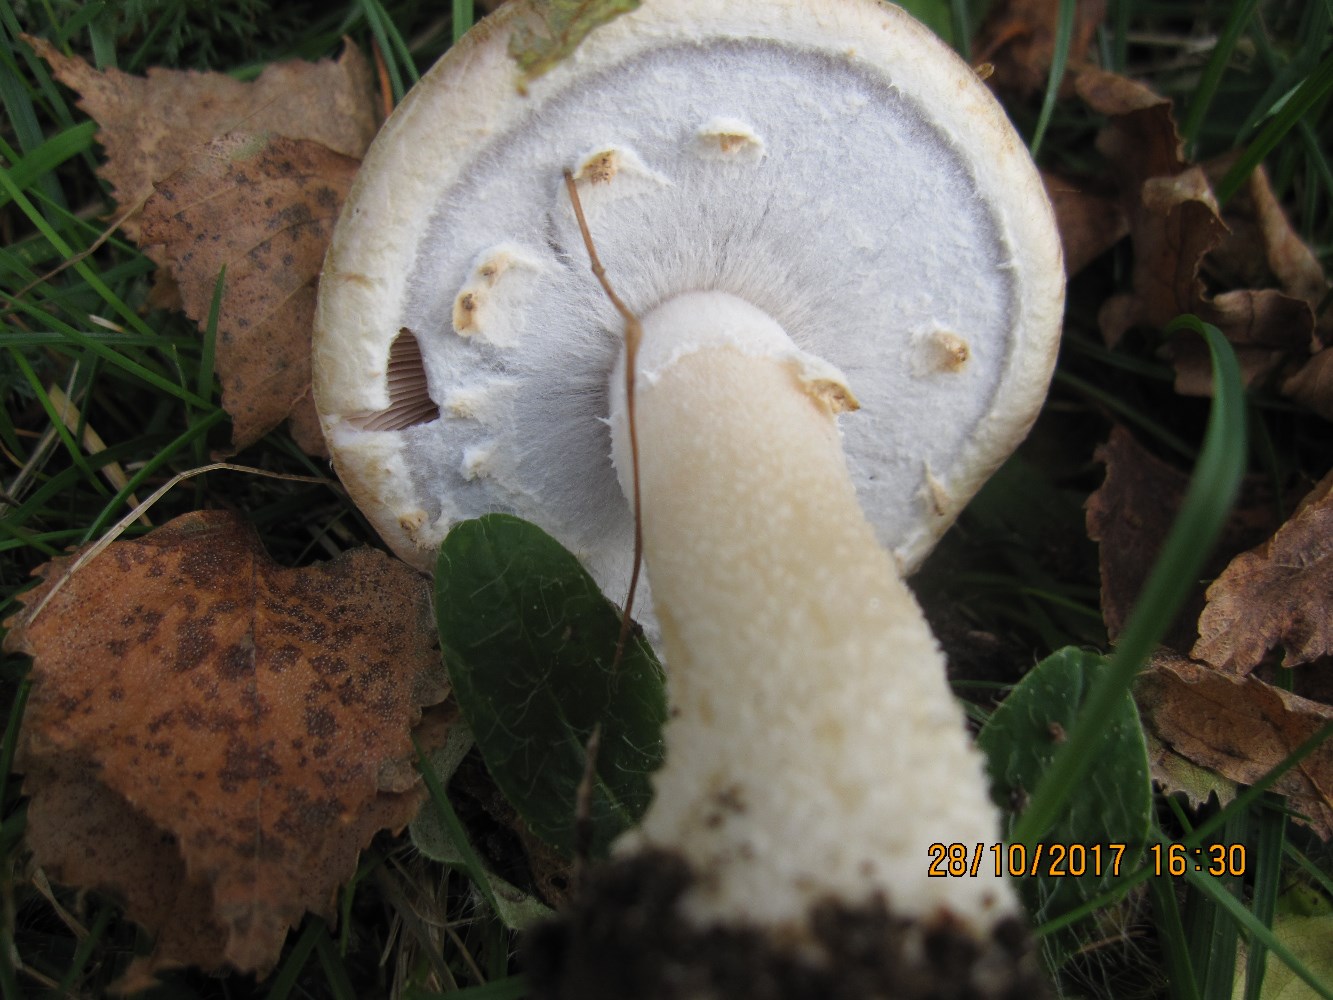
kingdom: Fungi
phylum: Basidiomycota
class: Agaricomycetes
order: Agaricales
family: Agaricaceae
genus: Agaricus
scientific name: Agaricus arvensis
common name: sprukken champignon
